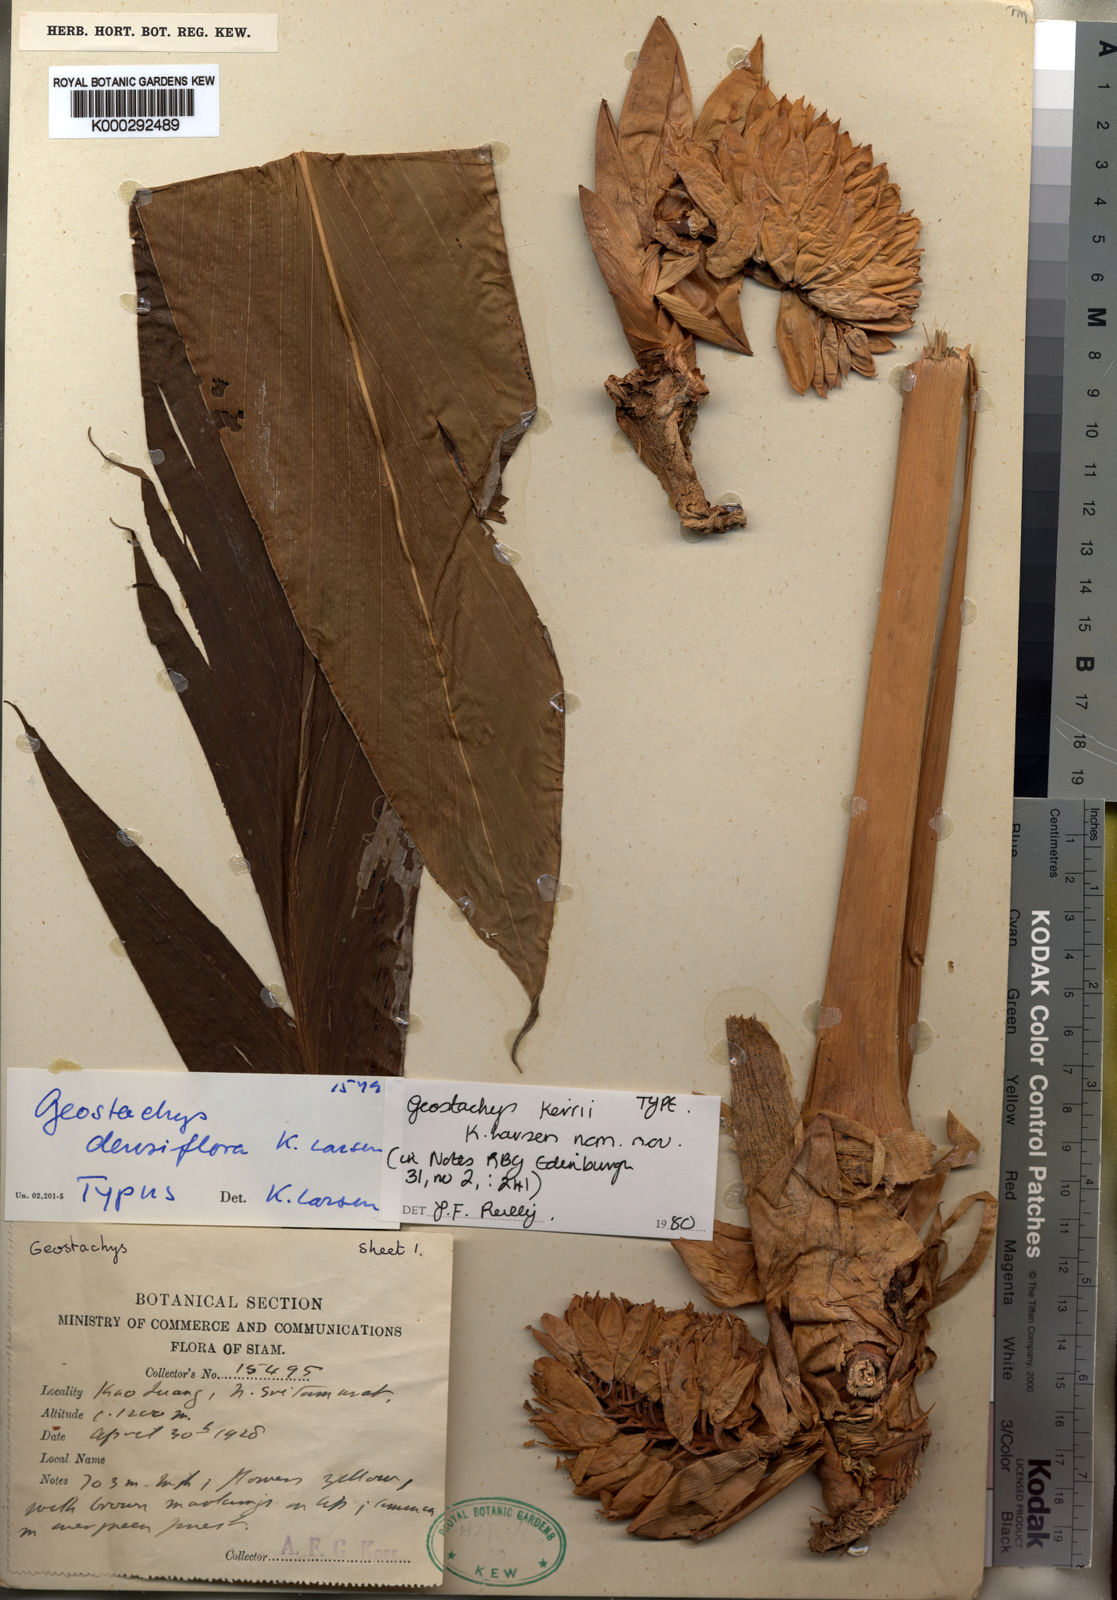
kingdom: Plantae
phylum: Tracheophyta
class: Liliopsida
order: Zingiberales
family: Zingiberaceae
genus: Geostachys
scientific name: Geostachys kerrii
